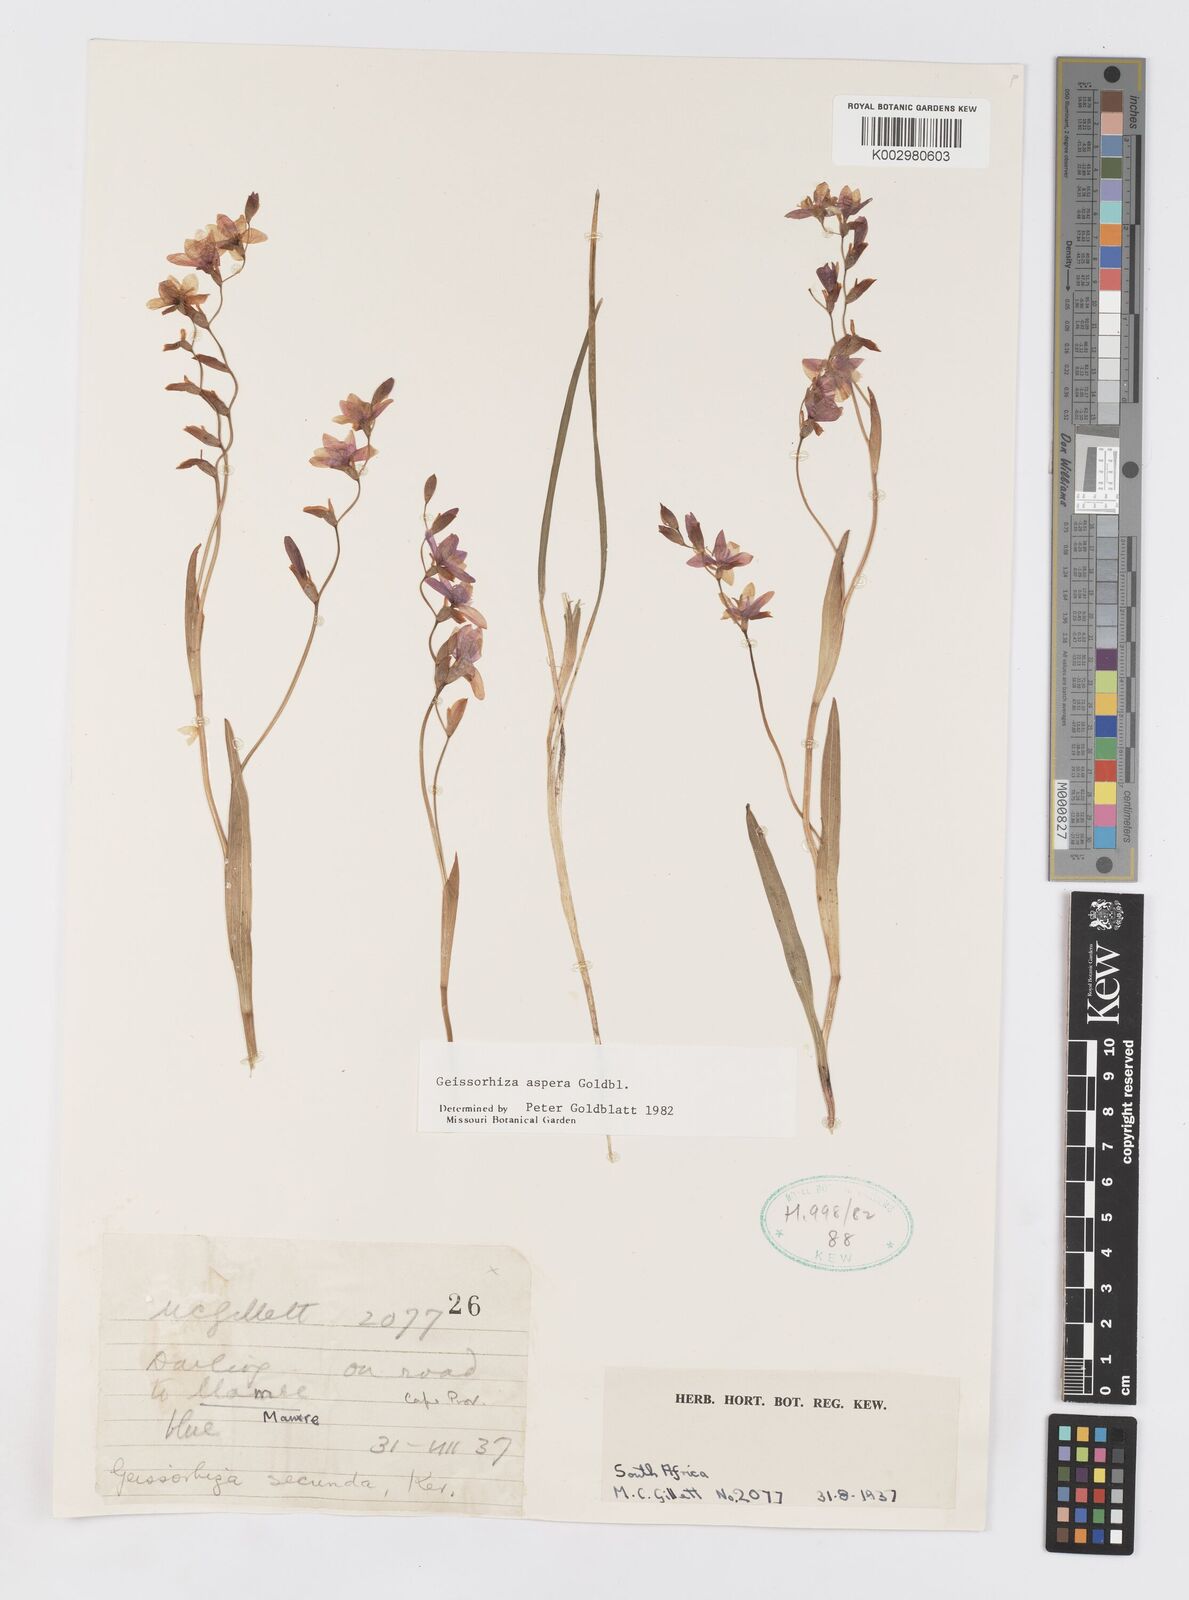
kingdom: Plantae
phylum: Tracheophyta
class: Liliopsida
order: Asparagales
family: Iridaceae
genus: Geissorhiza
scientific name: Geissorhiza aspera
